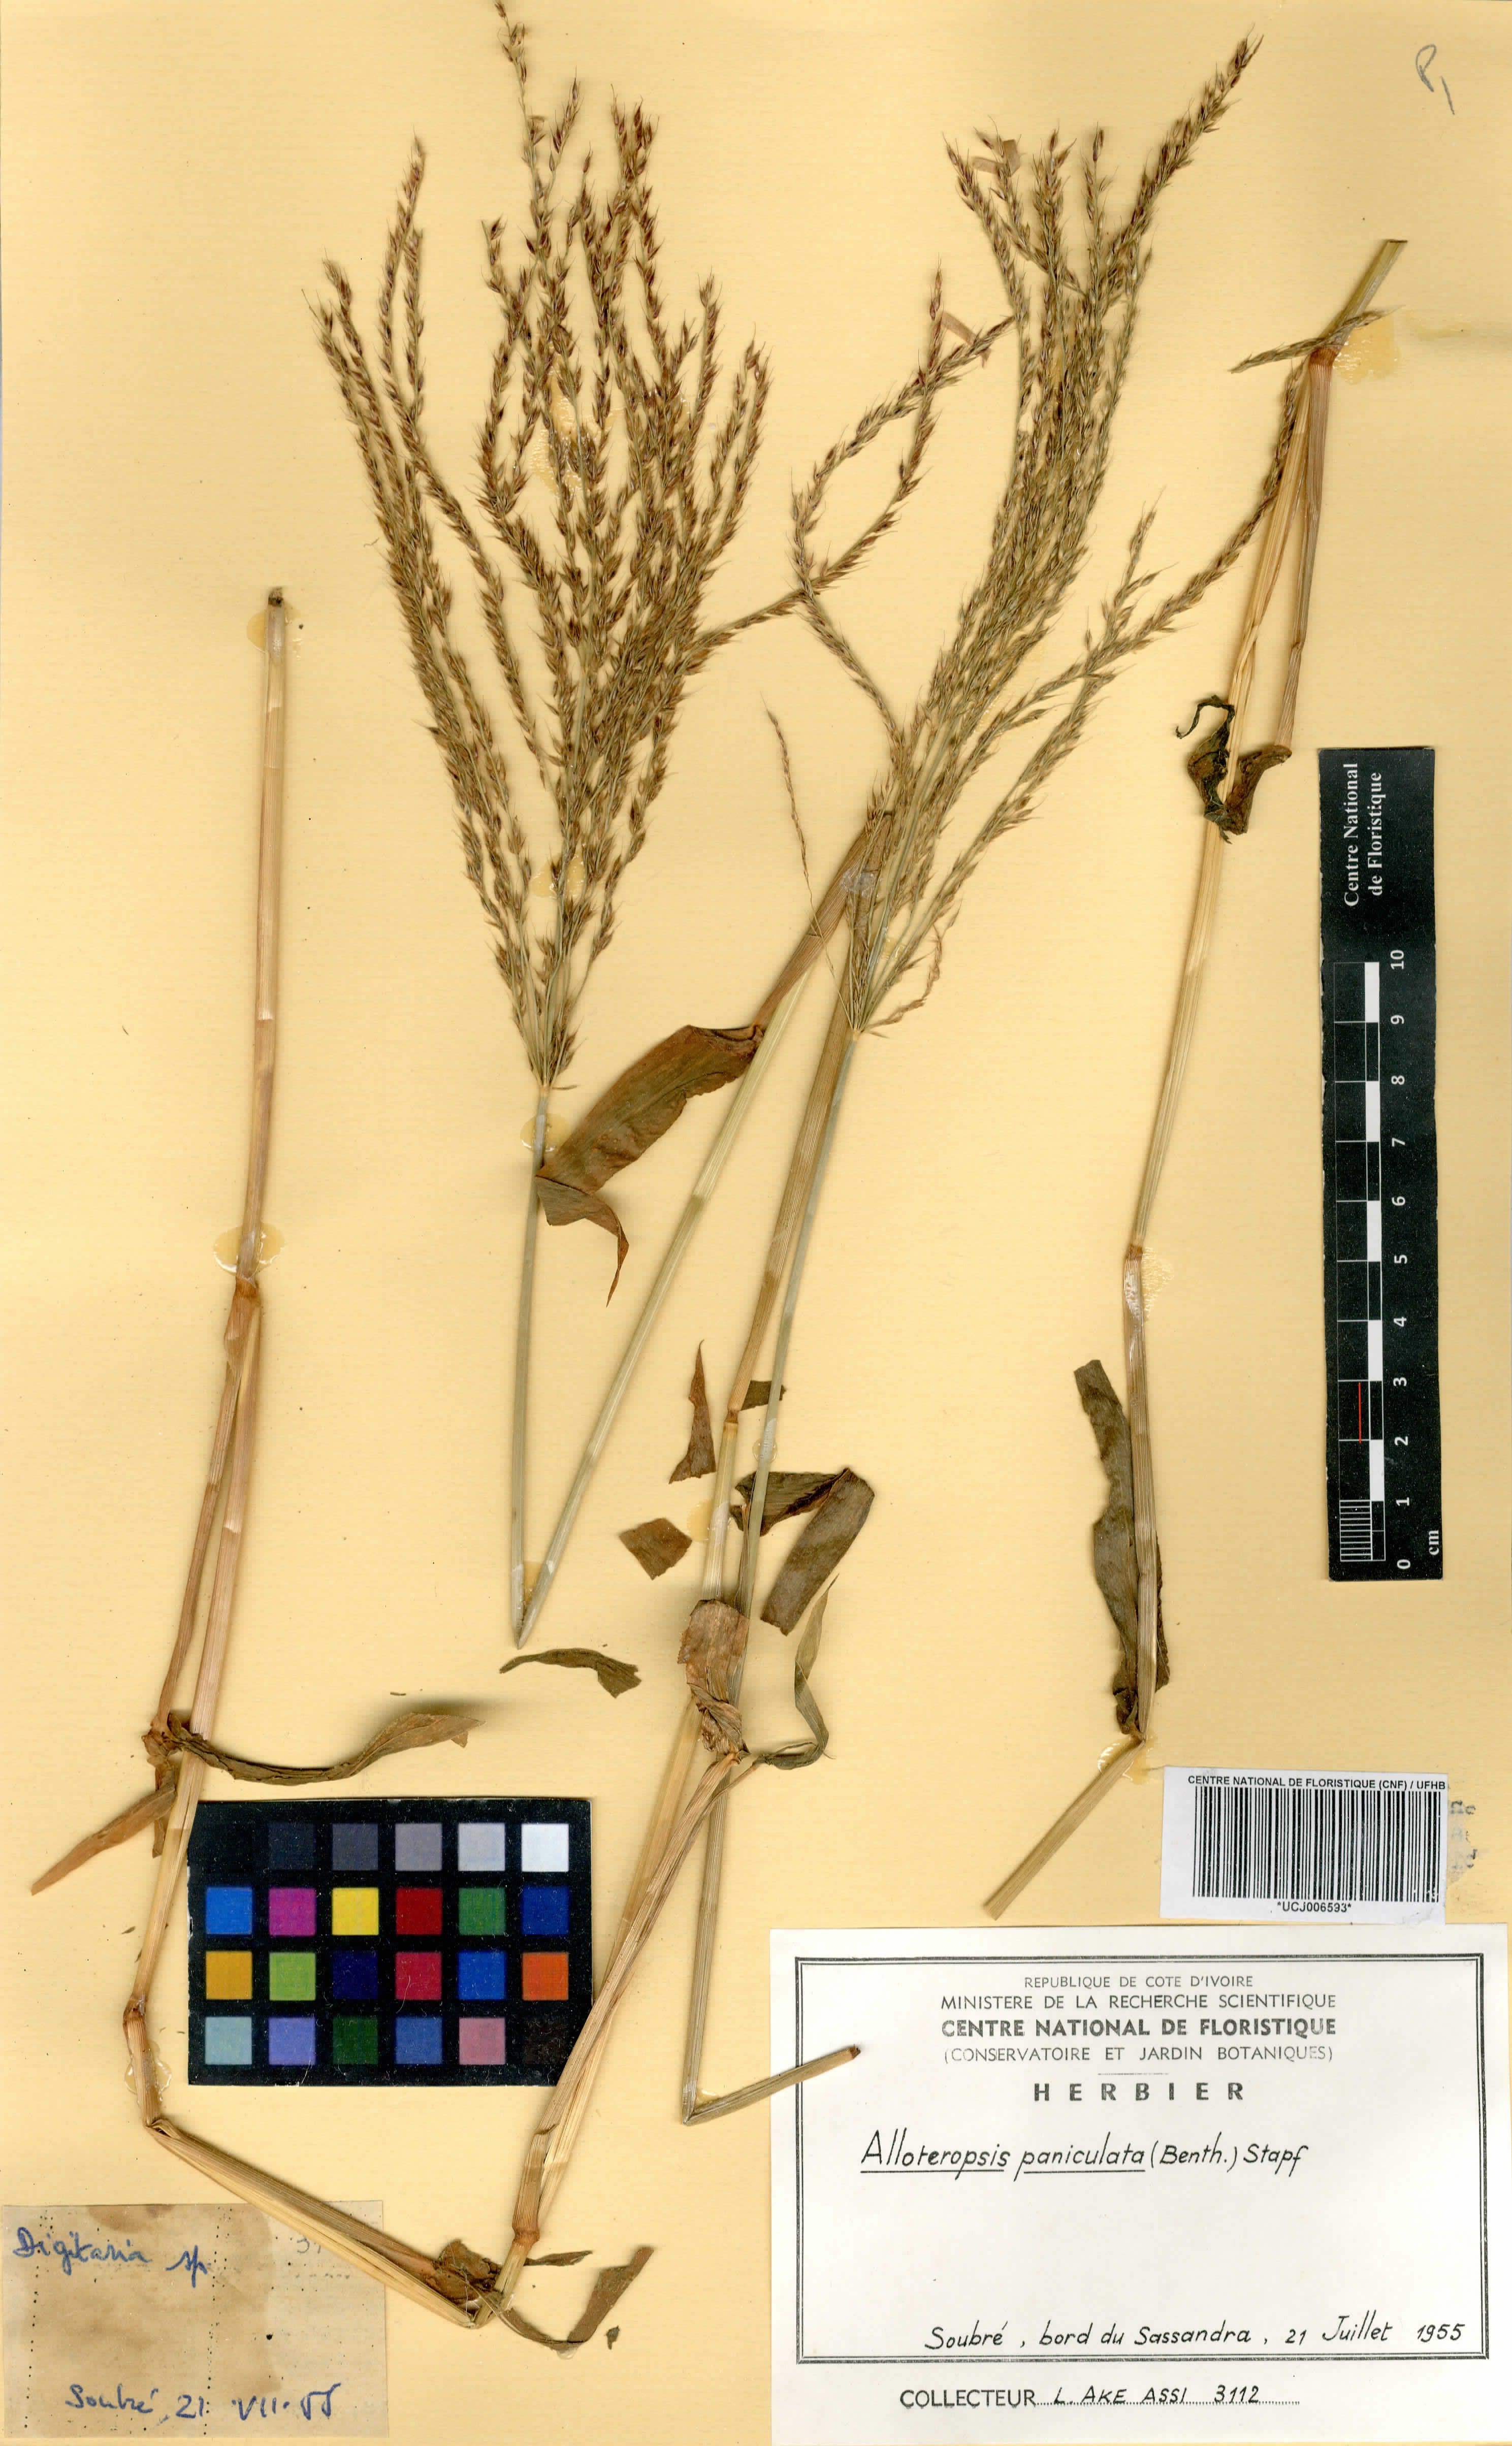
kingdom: Plantae
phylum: Tracheophyta
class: Liliopsida
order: Poales
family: Poaceae
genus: Alloteropsis
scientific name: Alloteropsis paniculata
